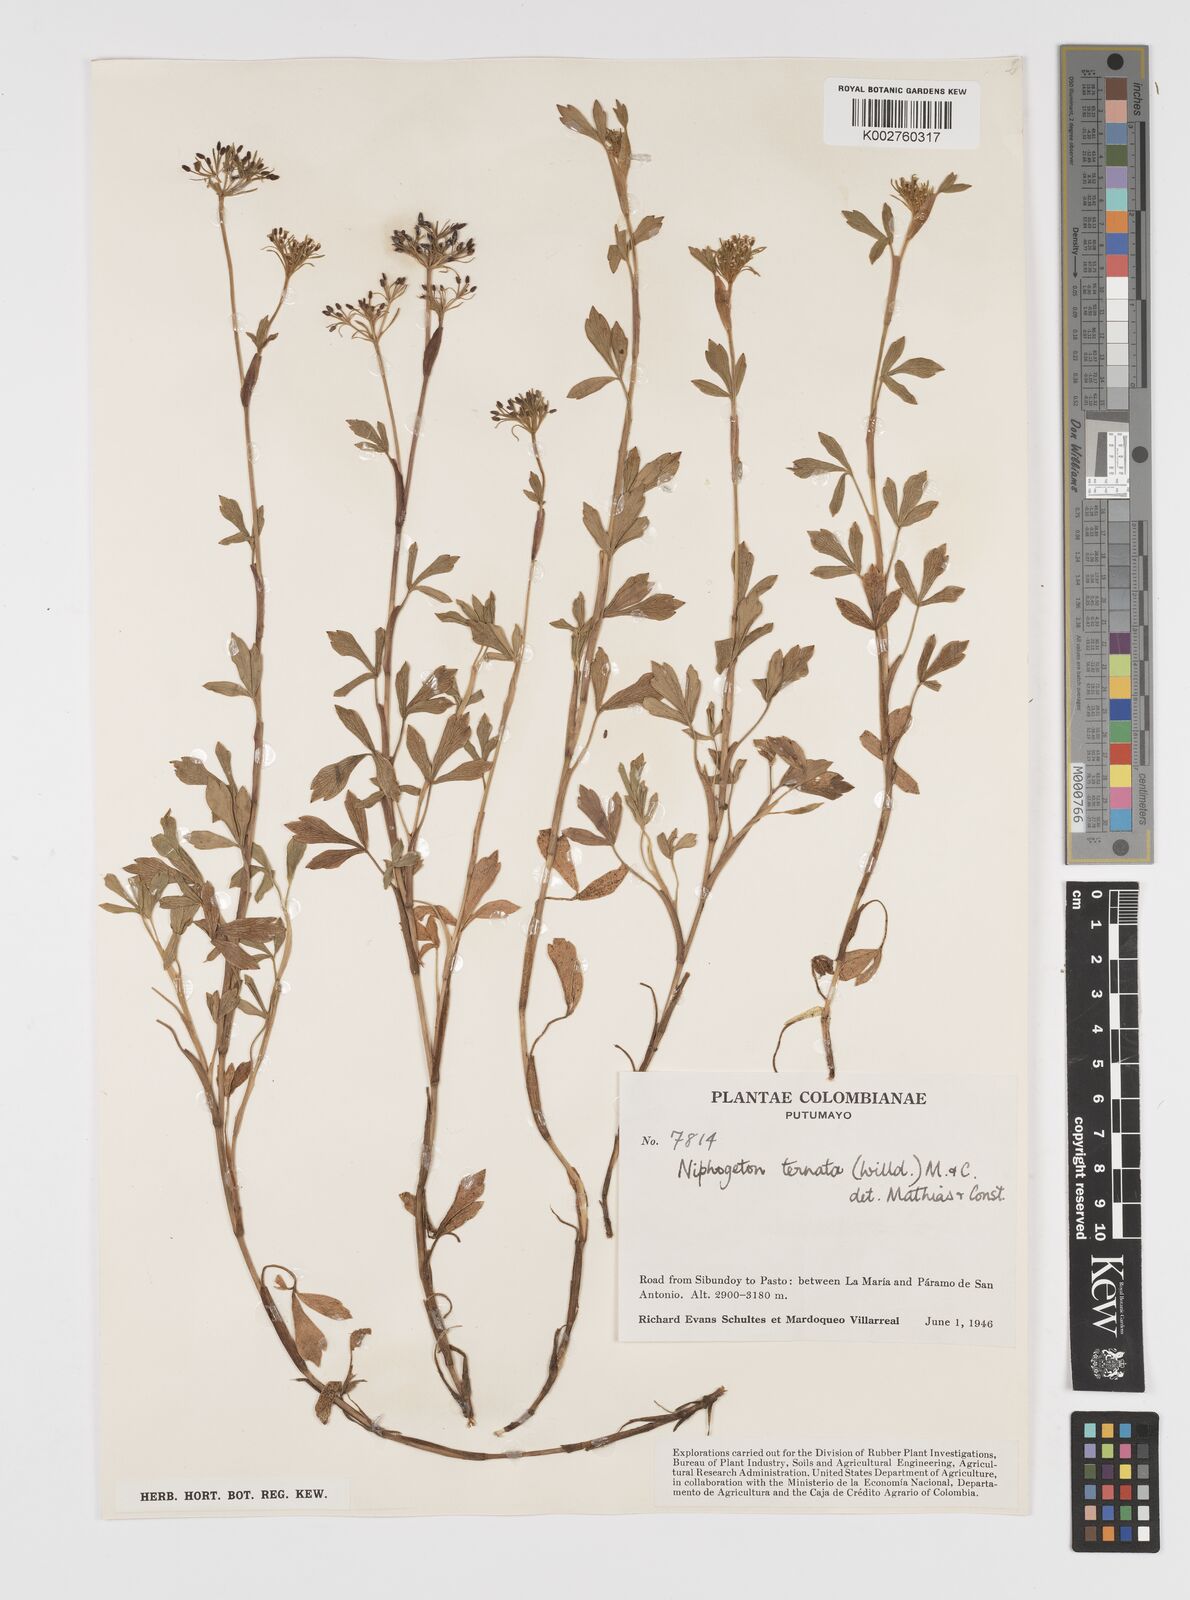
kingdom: Plantae
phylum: Tracheophyta
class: Magnoliopsida
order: Apiales
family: Apiaceae
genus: Niphogeton
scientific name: Niphogeton ternata
